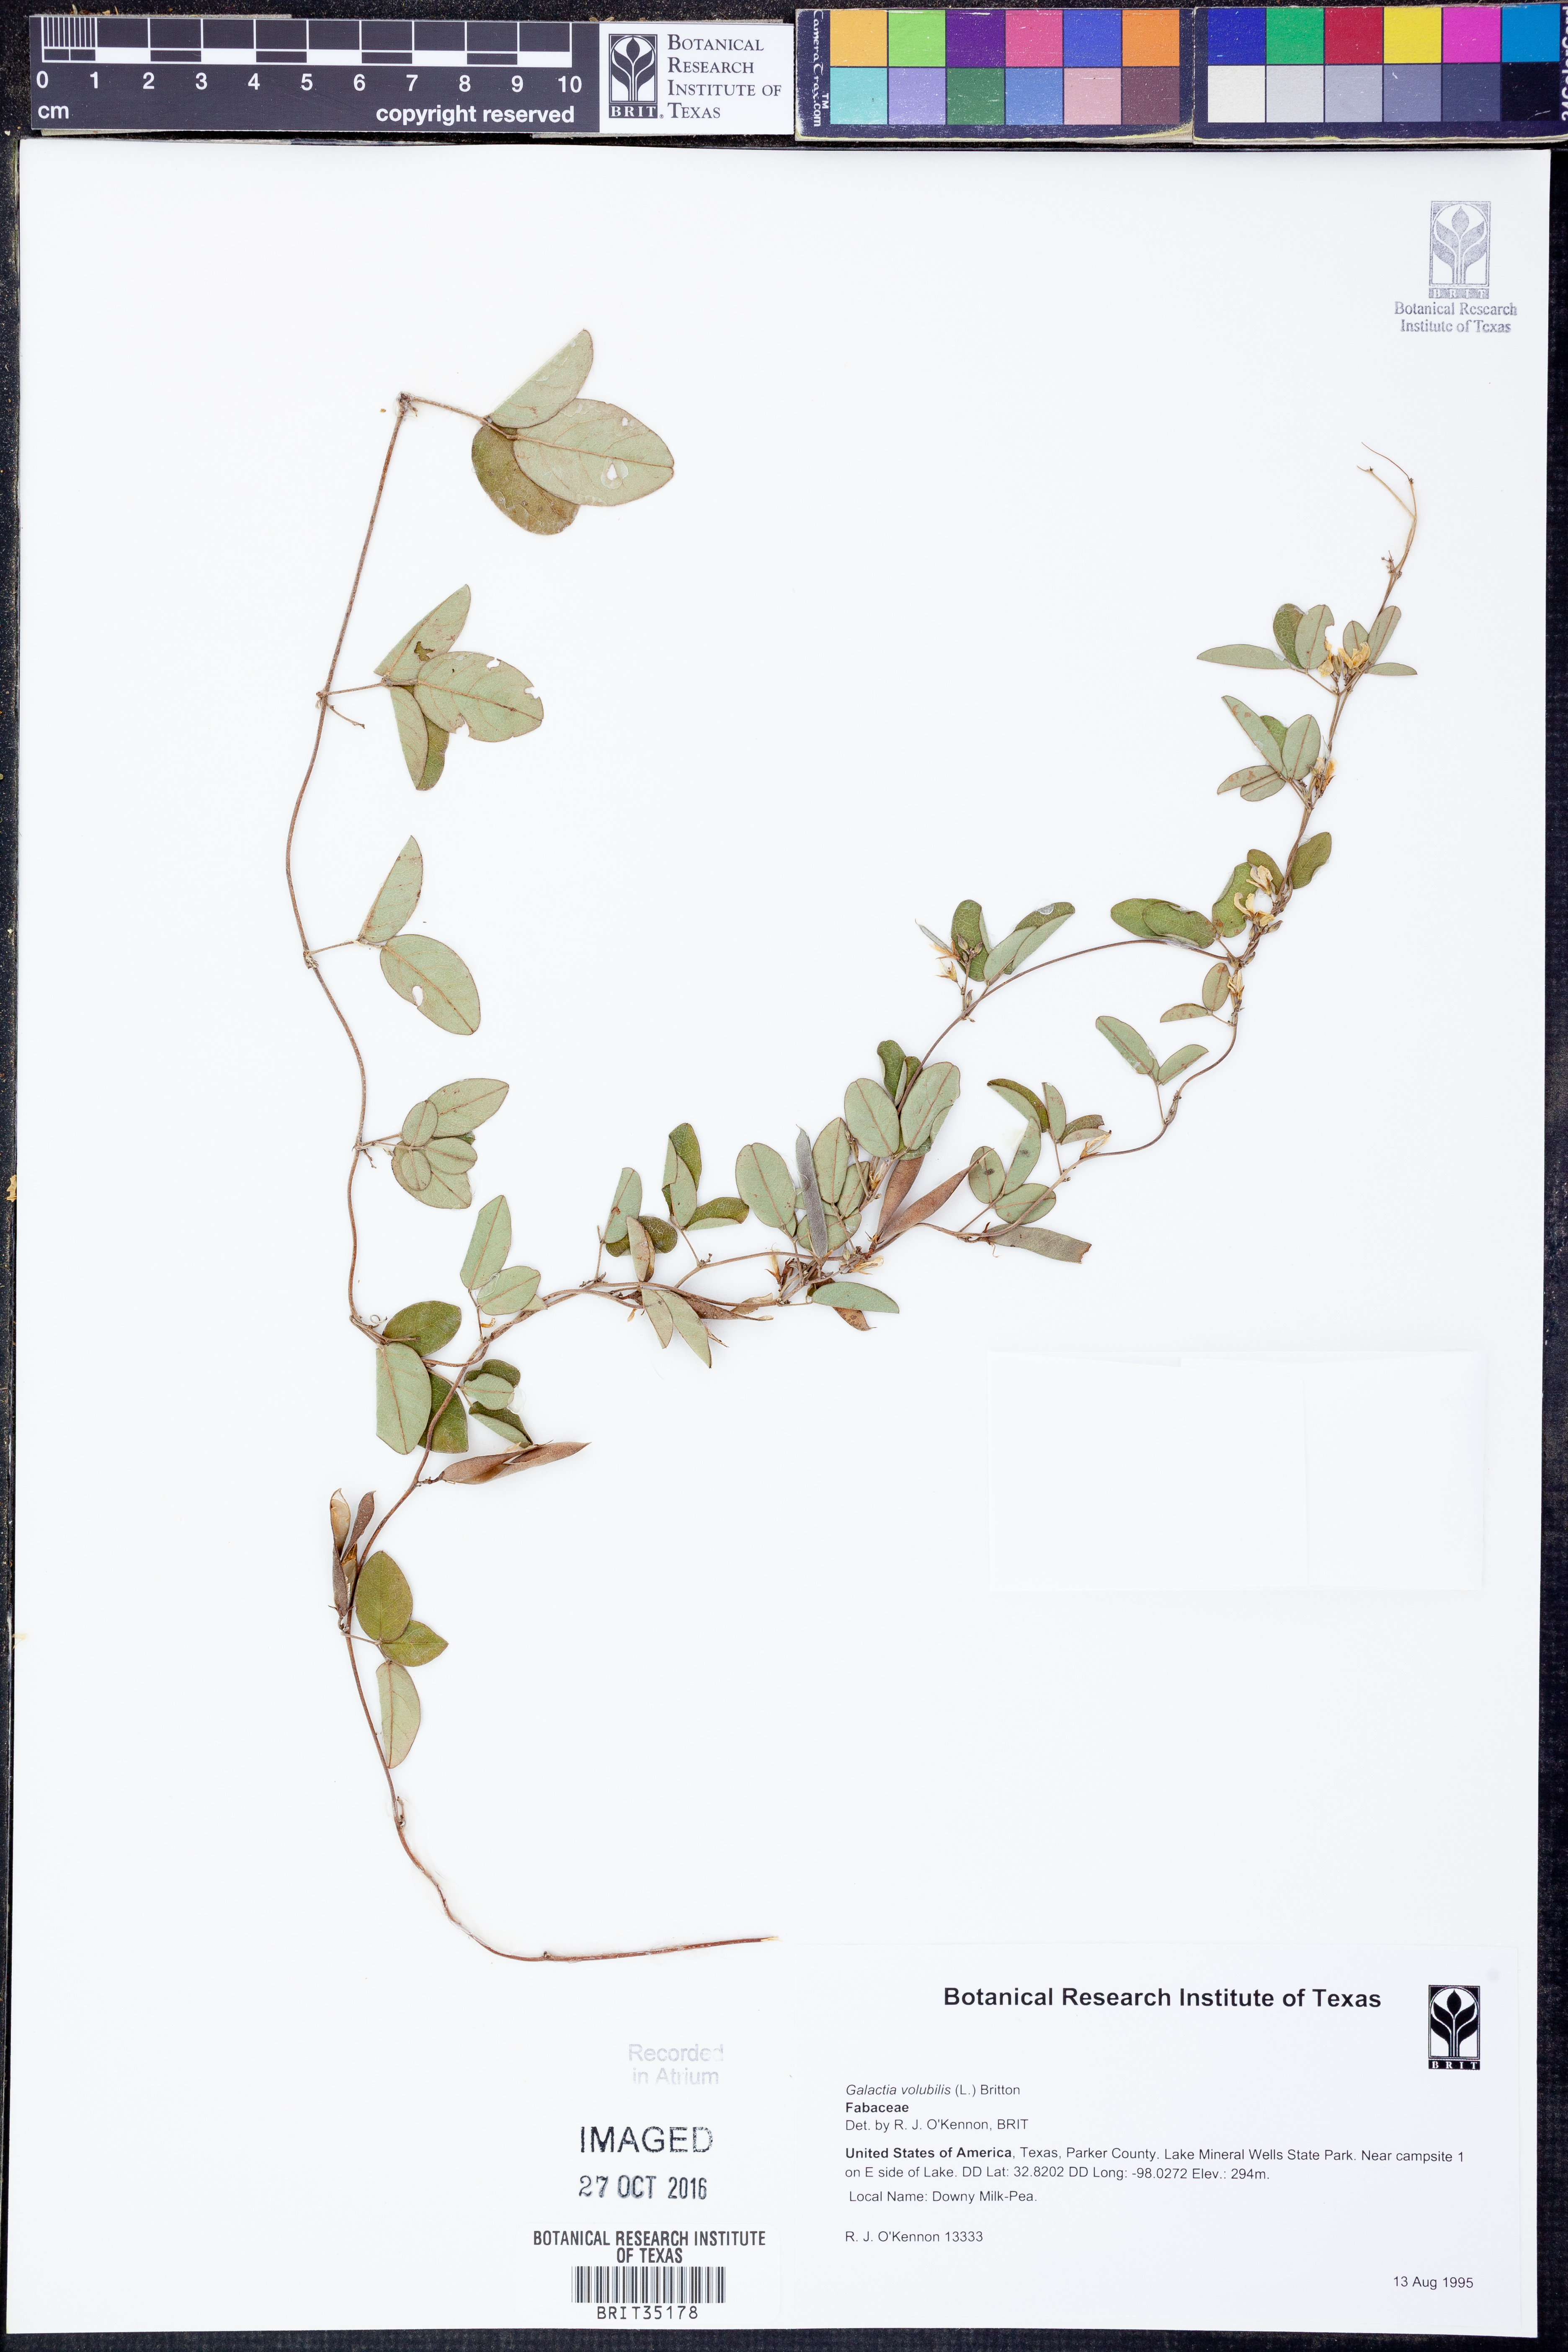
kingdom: Plantae
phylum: Tracheophyta
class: Magnoliopsida
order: Fabales
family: Fabaceae
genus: Galactia
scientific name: Galactia volubilis
